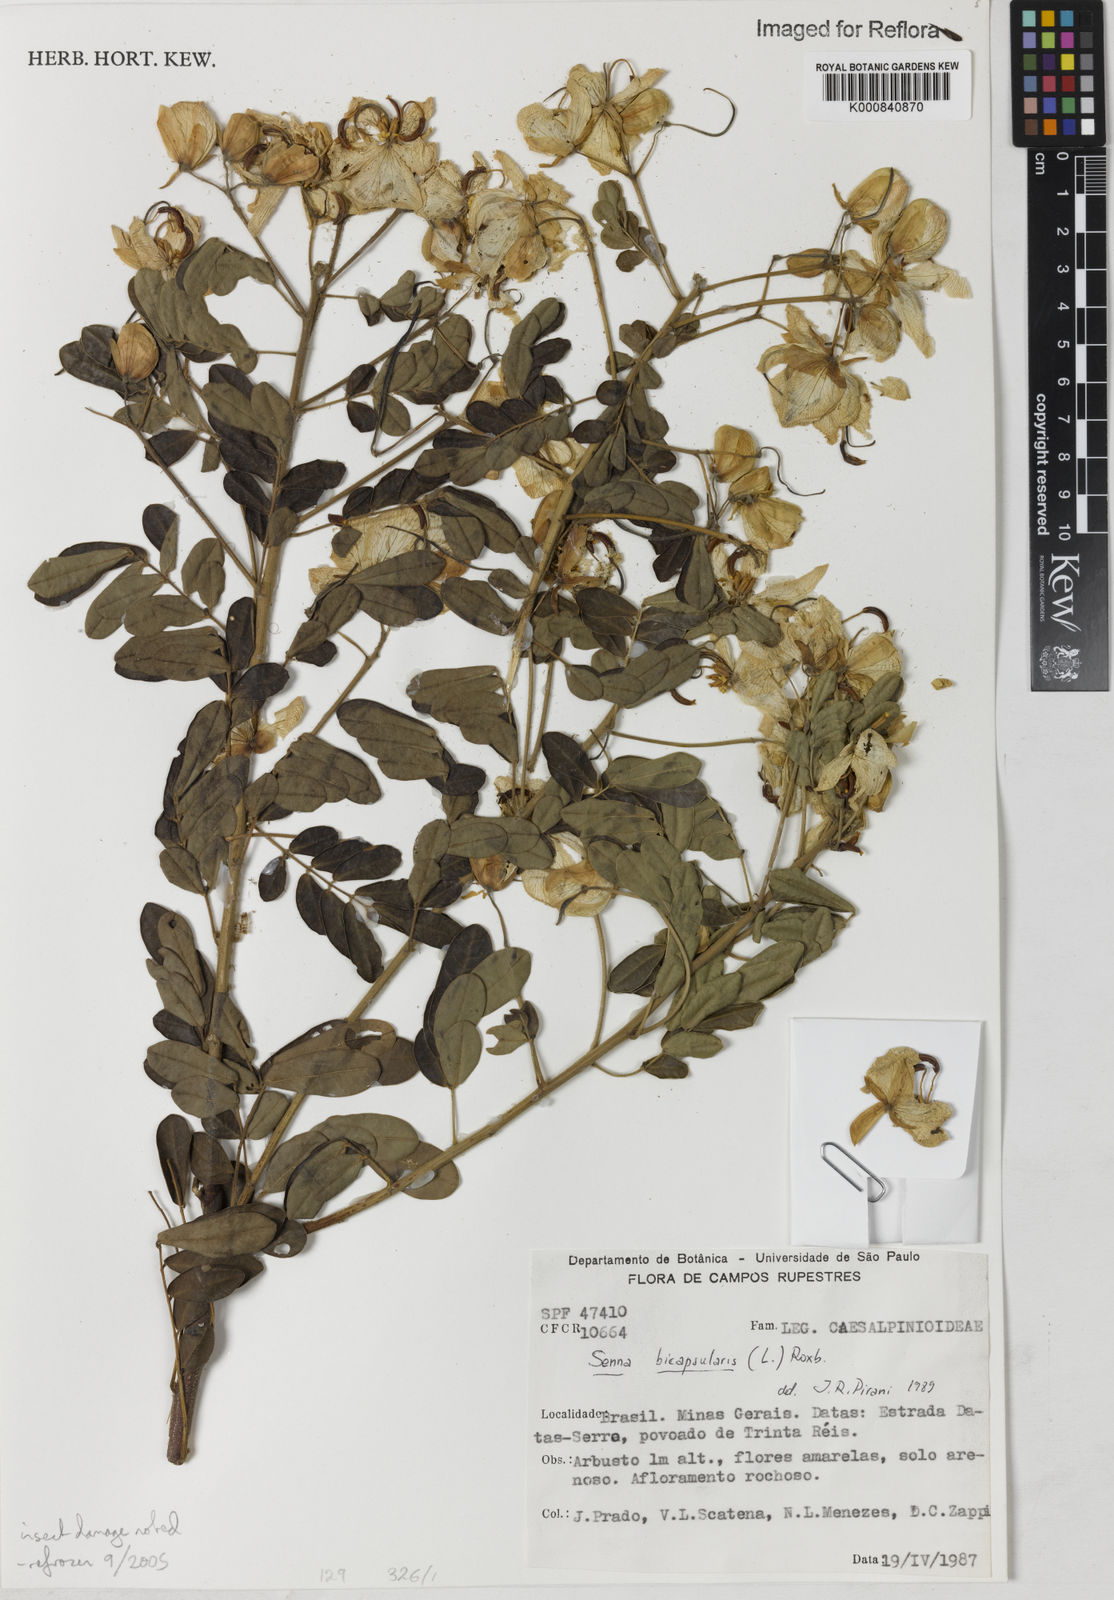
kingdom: Plantae
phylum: Tracheophyta
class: Magnoliopsida
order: Fabales
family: Fabaceae
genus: Senna
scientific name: Senna bicapsularis
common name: Christmasbush
